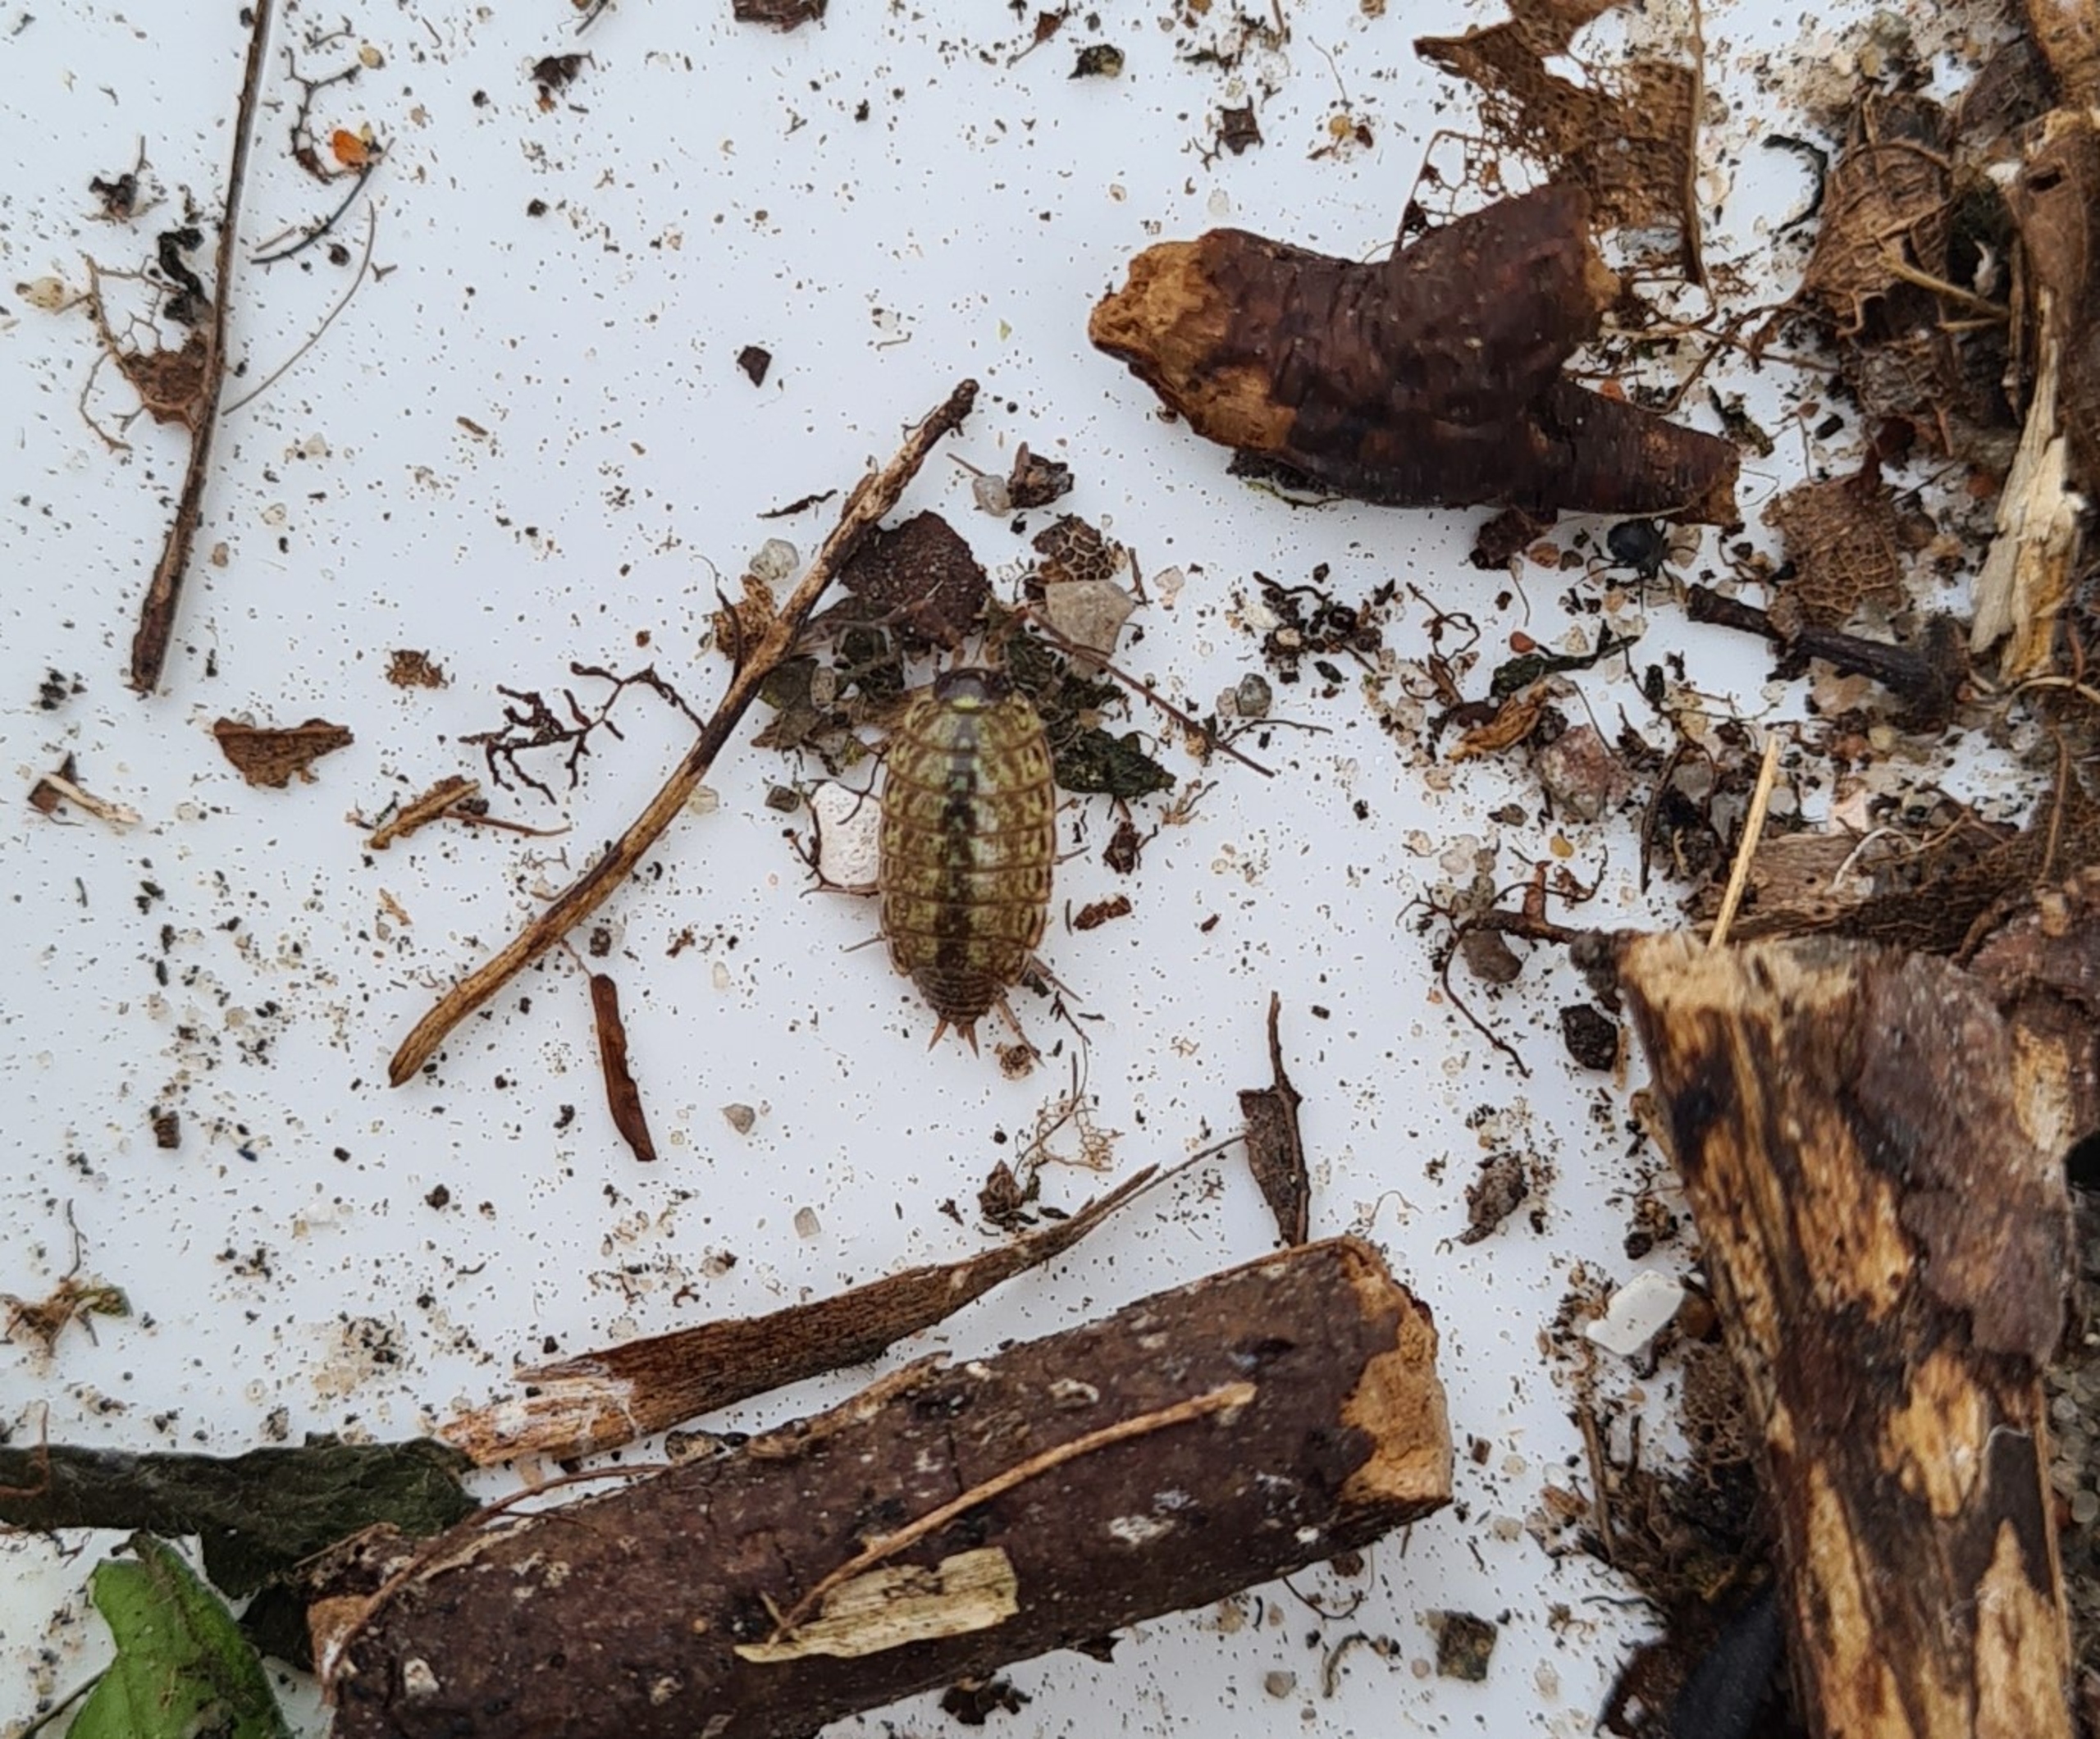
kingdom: Animalia
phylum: Arthropoda
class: Malacostraca
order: Isopoda
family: Philosciidae
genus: Philoscia
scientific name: Philoscia muscorum
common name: Langbenet bænkebider
